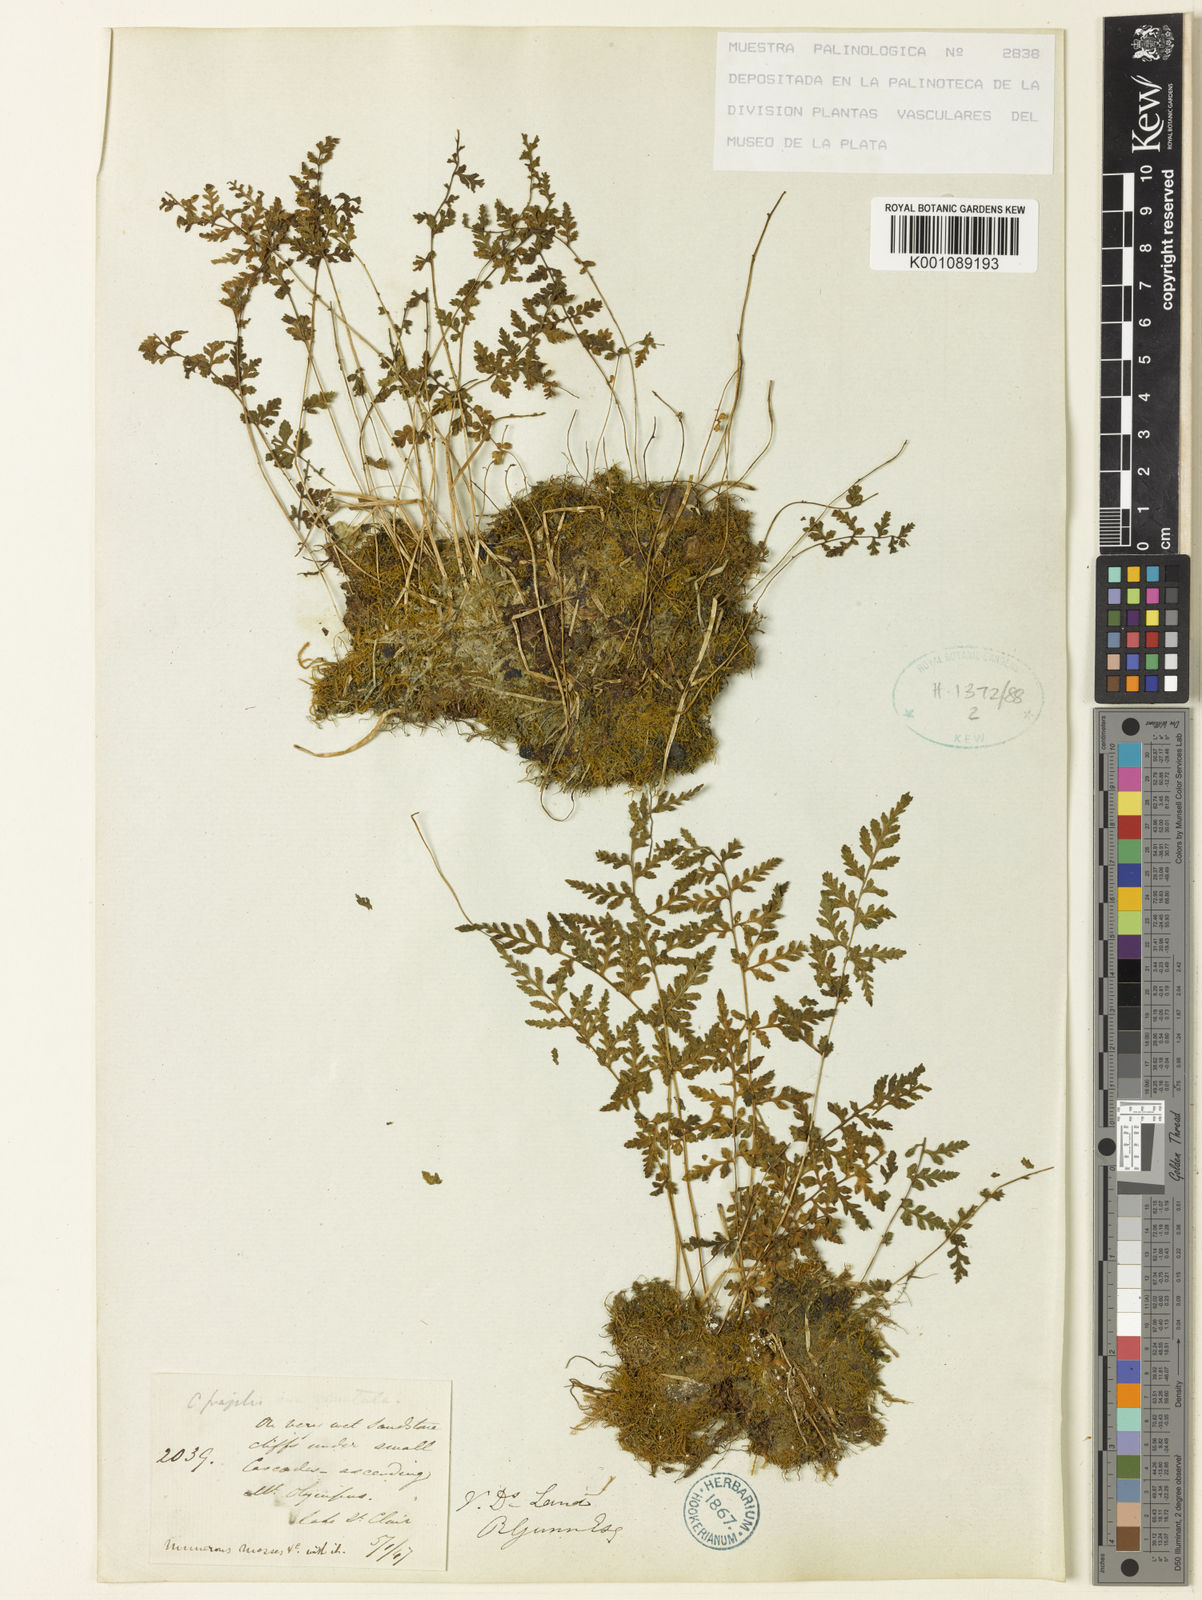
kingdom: Plantae
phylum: Tracheophyta
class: Polypodiopsida
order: Polypodiales
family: Cystopteridaceae
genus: Cystopteris
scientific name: Cystopteris tasmanica
